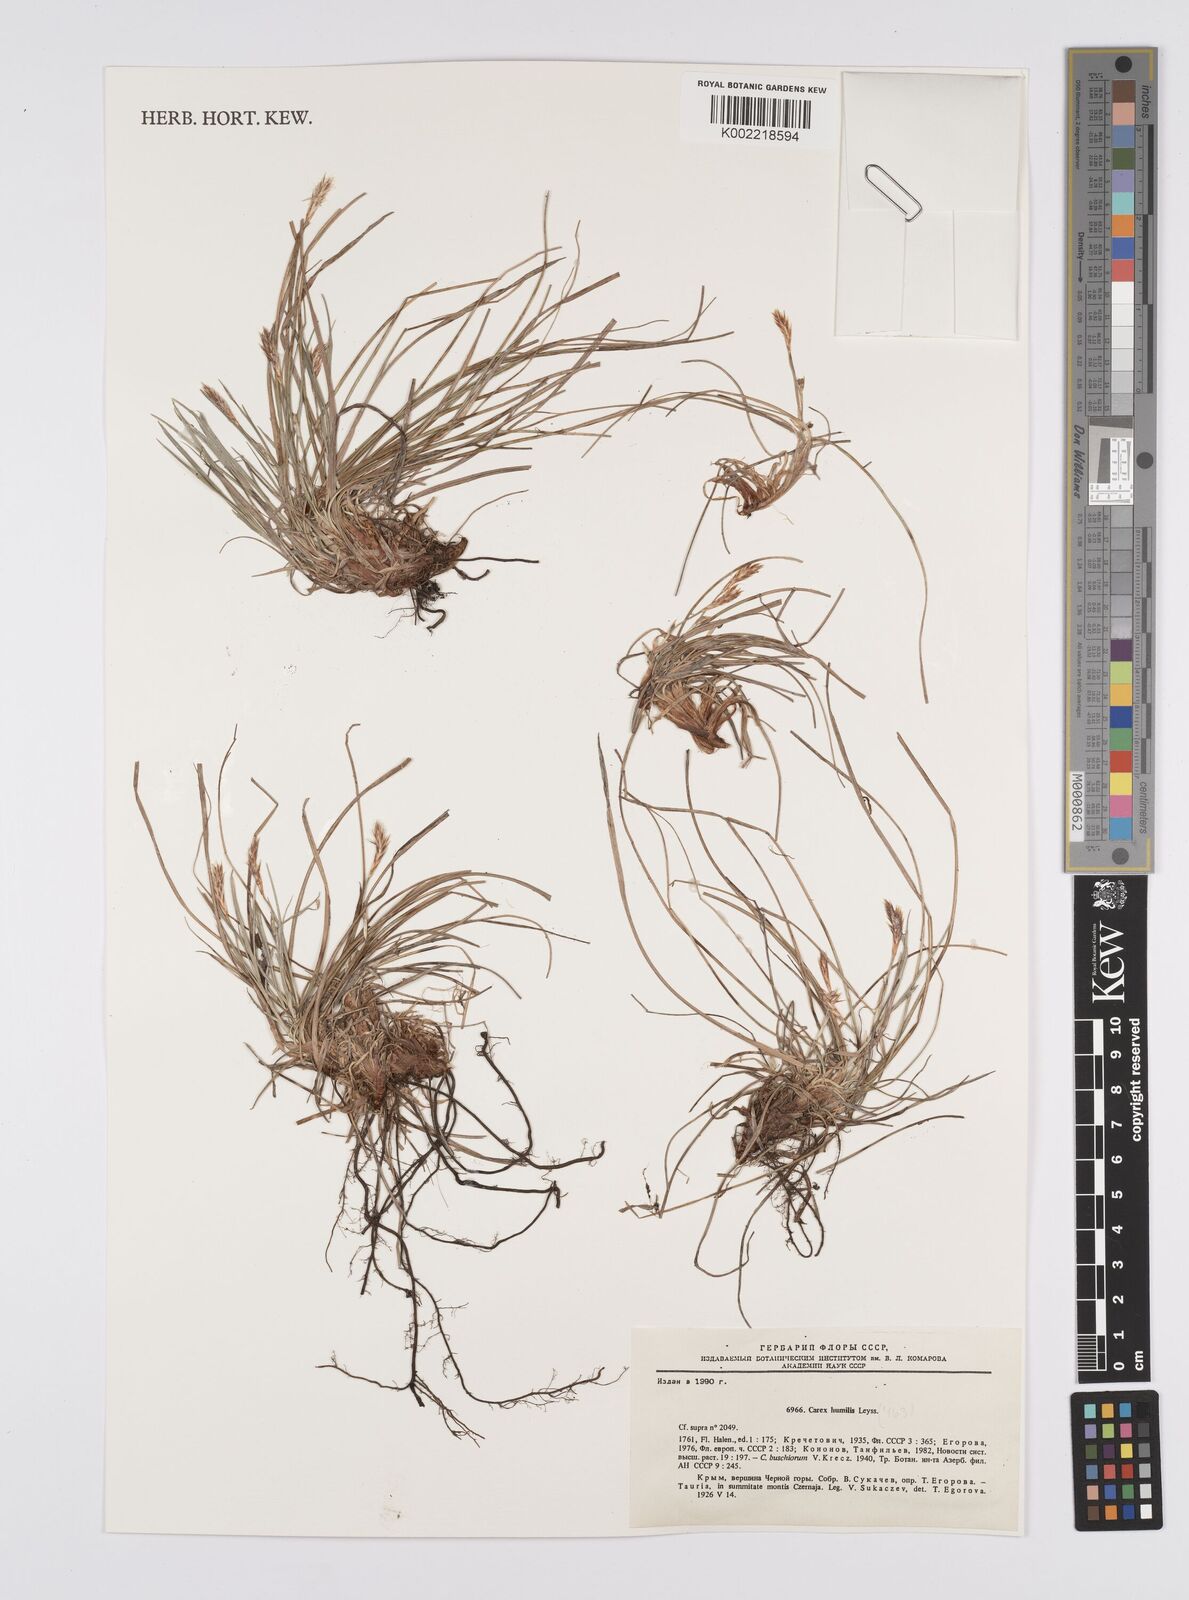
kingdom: Plantae
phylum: Tracheophyta
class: Liliopsida
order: Poales
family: Cyperaceae
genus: Carex
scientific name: Carex humilis
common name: Dwarf sedge
